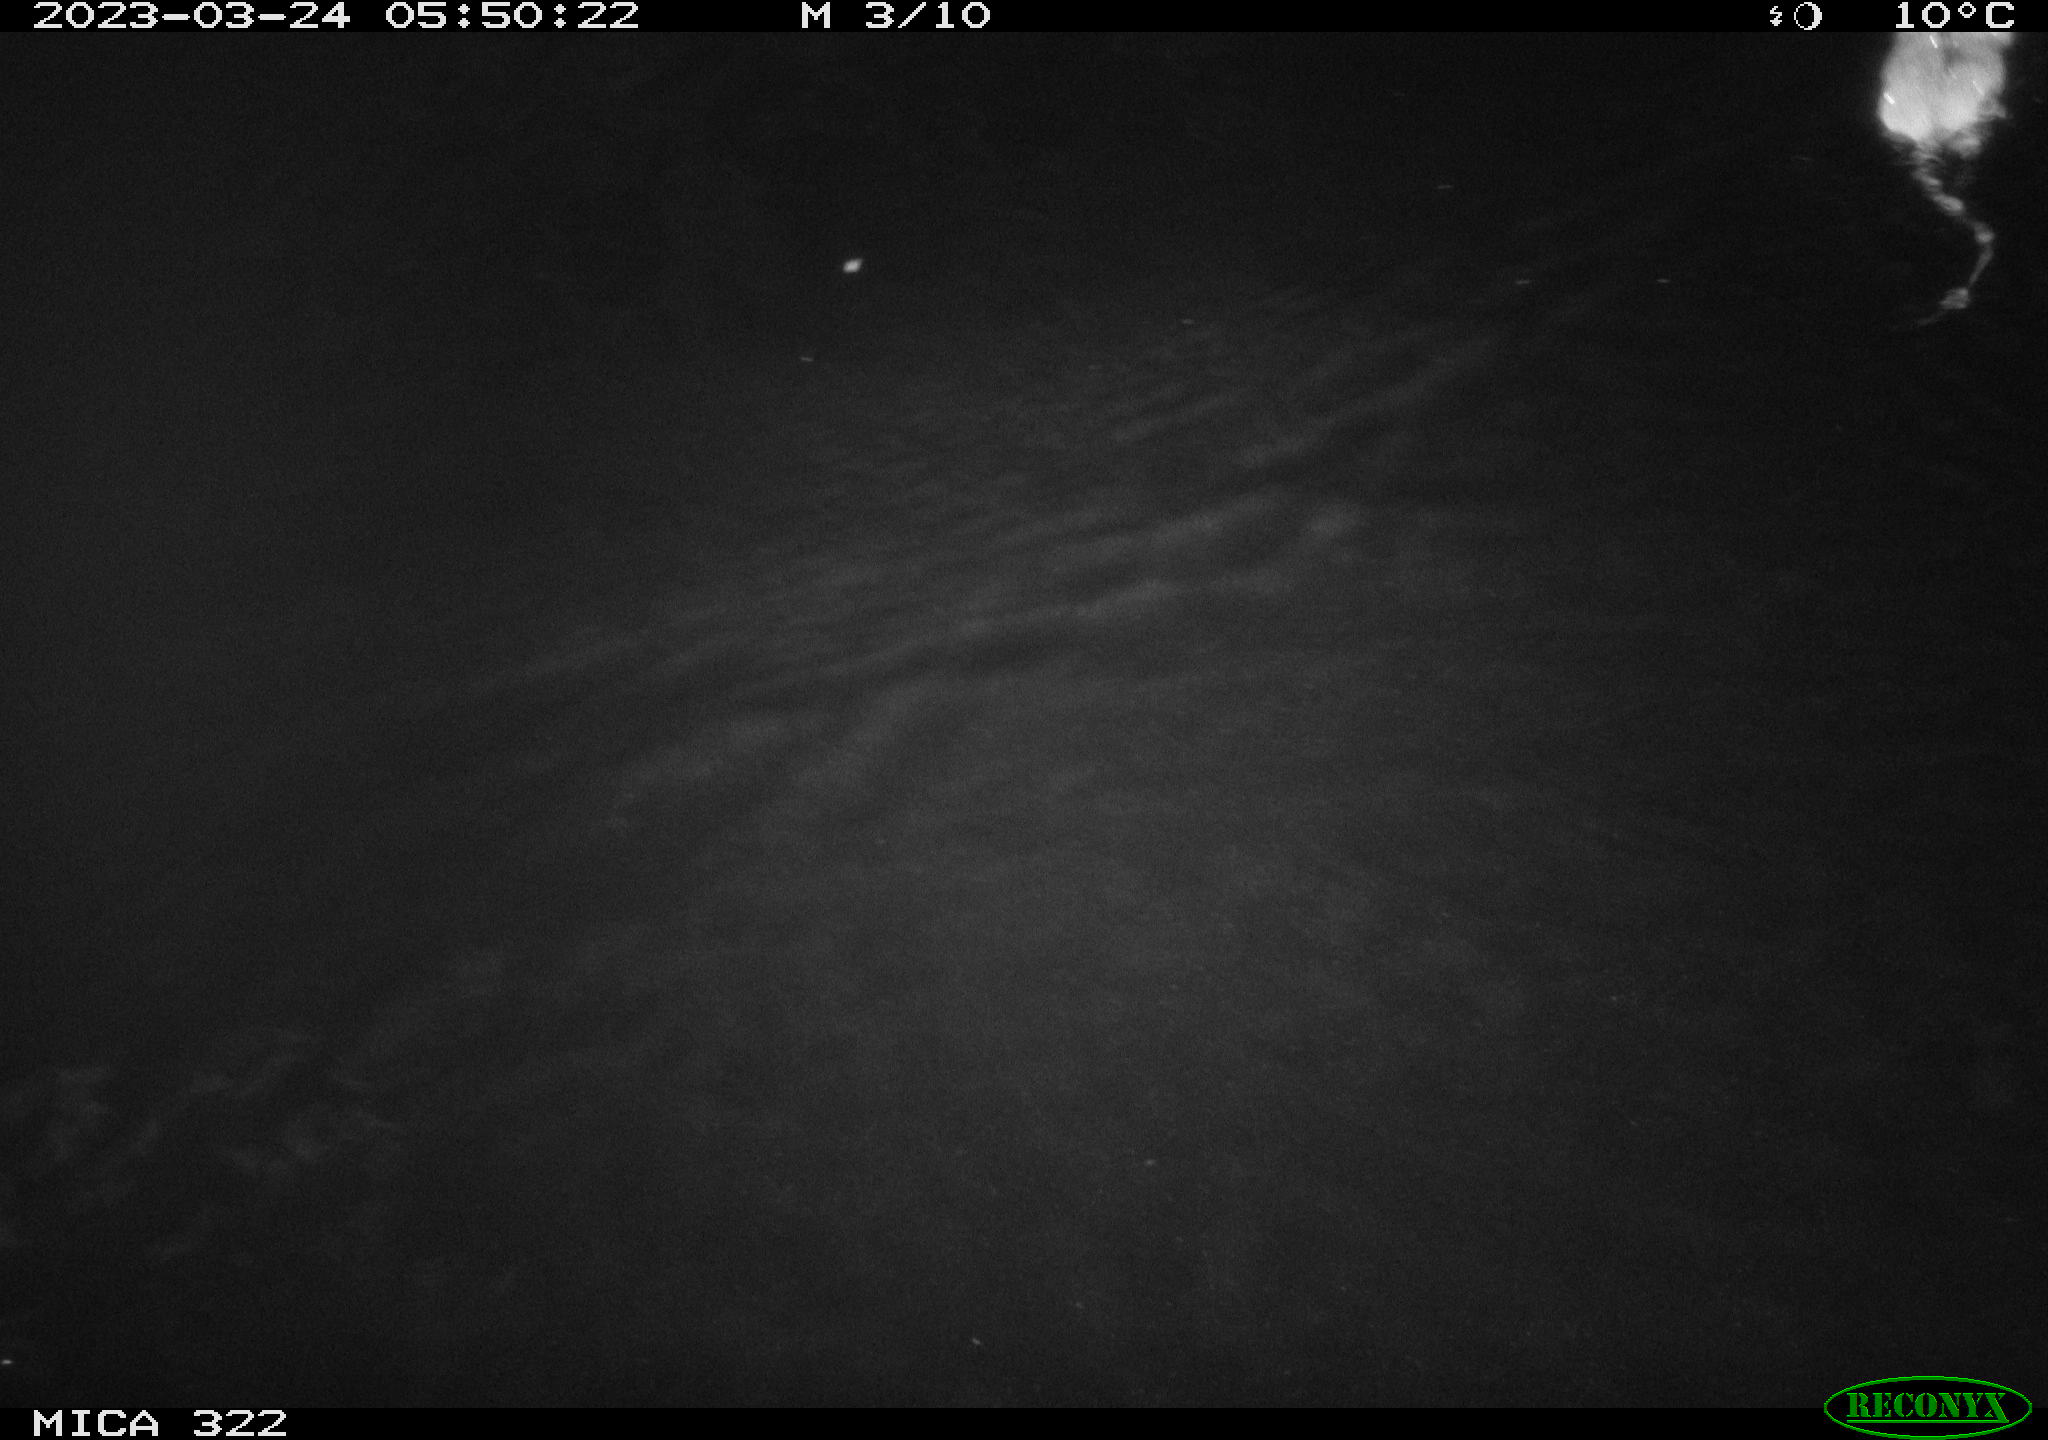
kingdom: Animalia
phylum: Chordata
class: Mammalia
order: Rodentia
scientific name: Rodentia
